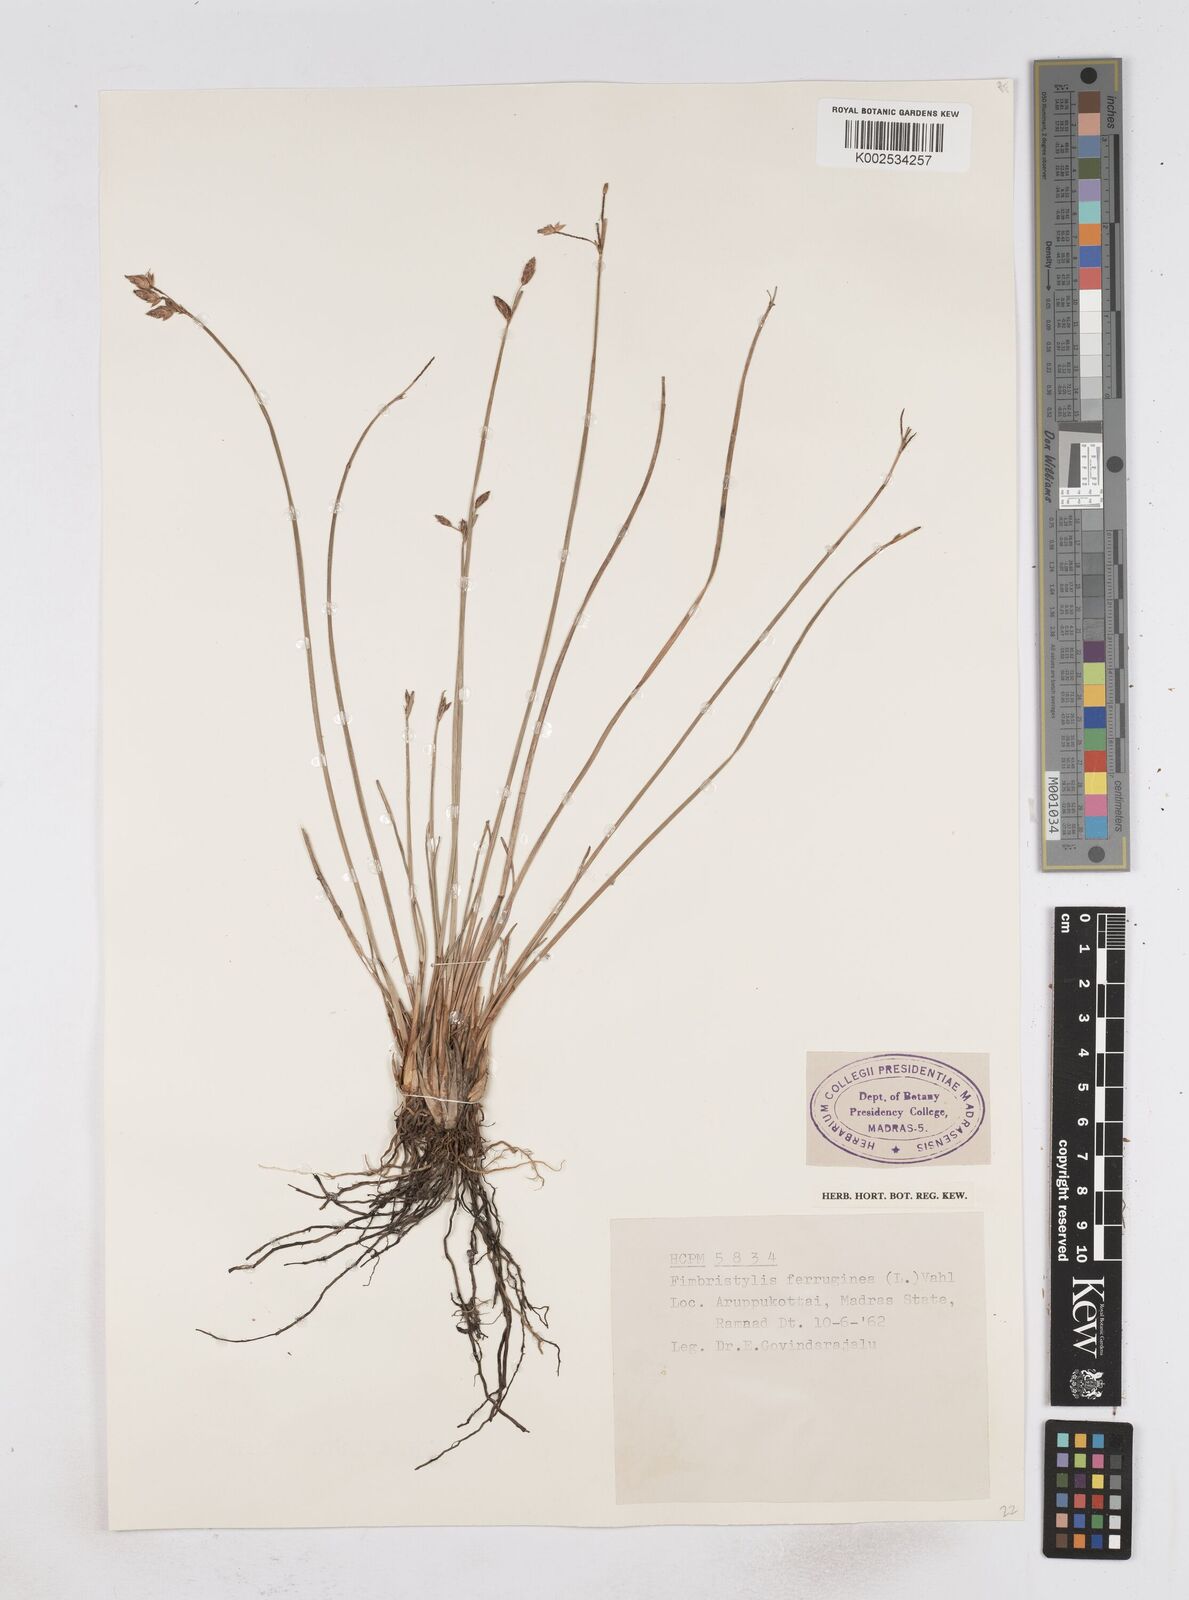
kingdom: Plantae
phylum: Tracheophyta
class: Liliopsida
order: Poales
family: Cyperaceae
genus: Fimbristylis
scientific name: Fimbristylis ferruginea
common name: West indian fimbry
